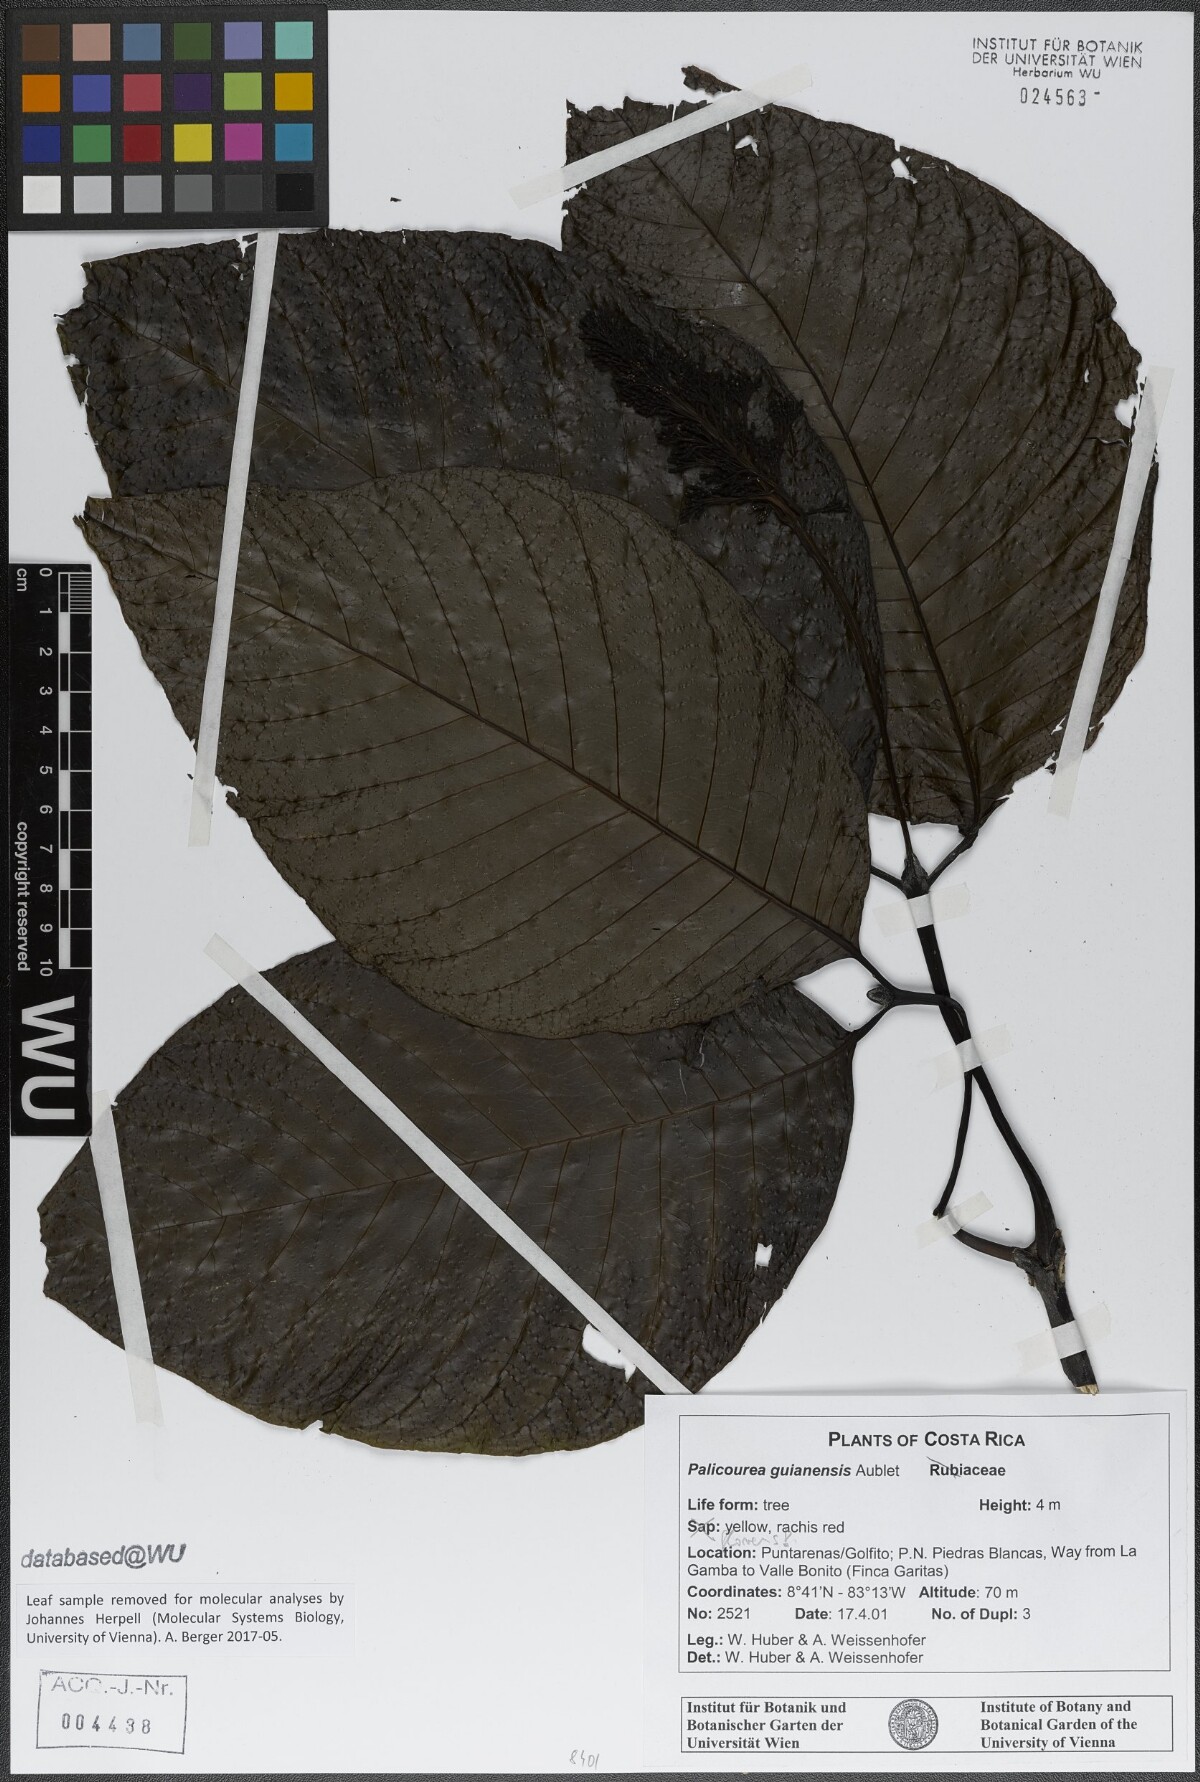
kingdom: Plantae
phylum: Tracheophyta
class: Magnoliopsida
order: Gentianales
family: Rubiaceae
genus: Palicourea
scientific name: Palicourea guianensis
